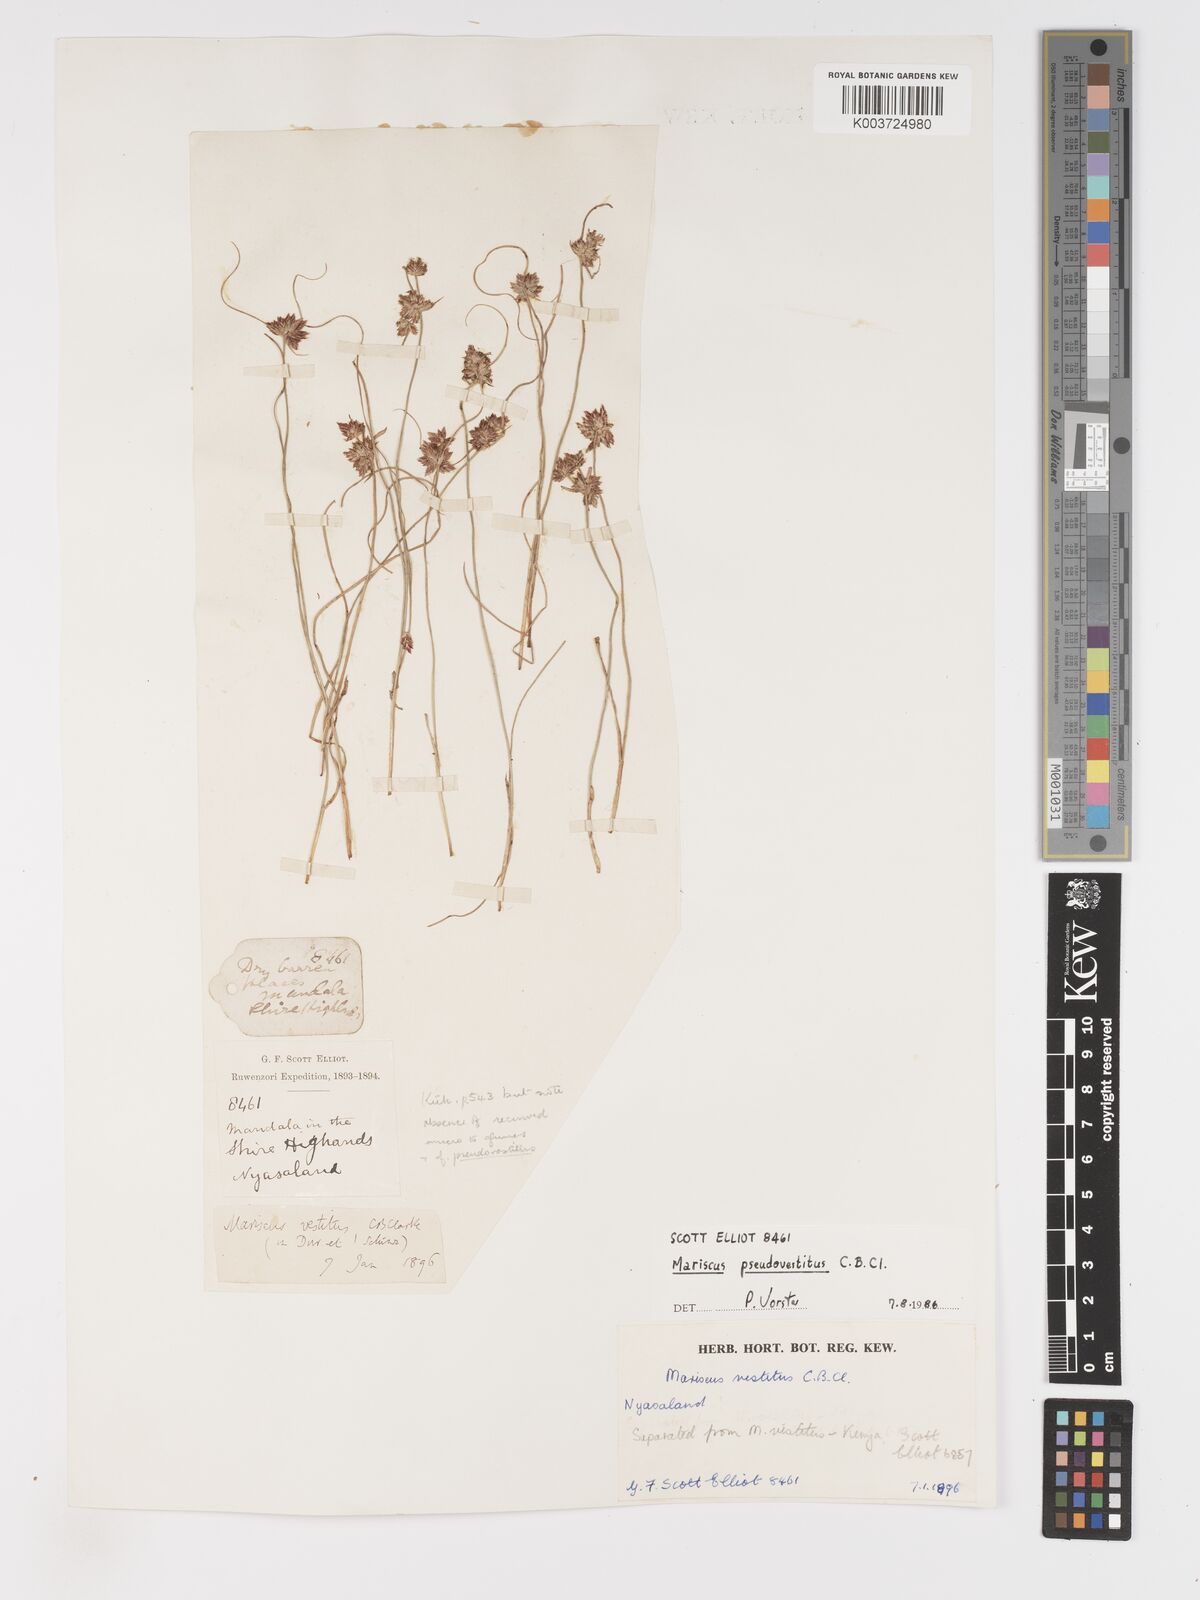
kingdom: Plantae
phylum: Tracheophyta
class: Liliopsida
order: Poales
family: Cyperaceae
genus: Cyperus
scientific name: Cyperus pseudovestitus
